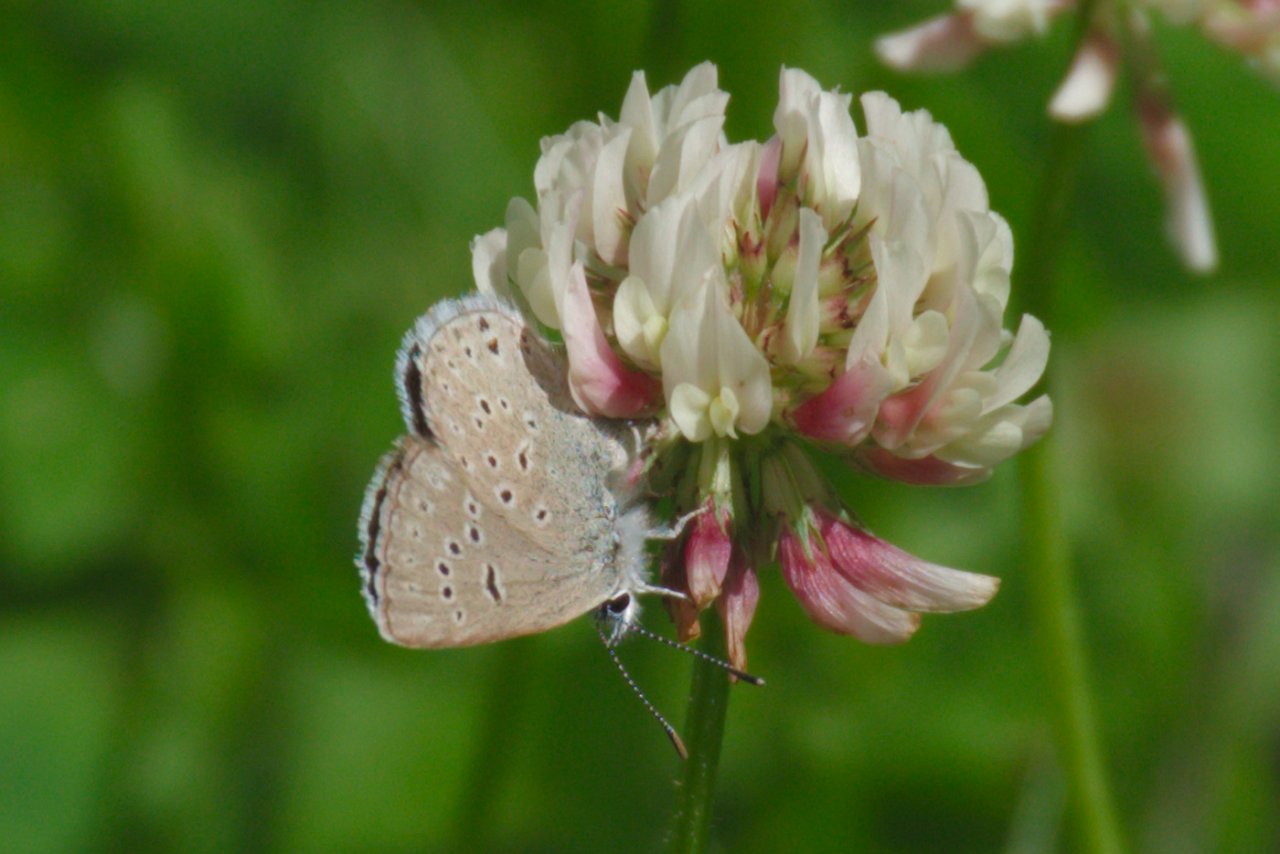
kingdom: Animalia
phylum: Arthropoda
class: Insecta
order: Lepidoptera
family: Lycaenidae
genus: Plebejus
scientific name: Plebejus saepiolus
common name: Greenish Blue
